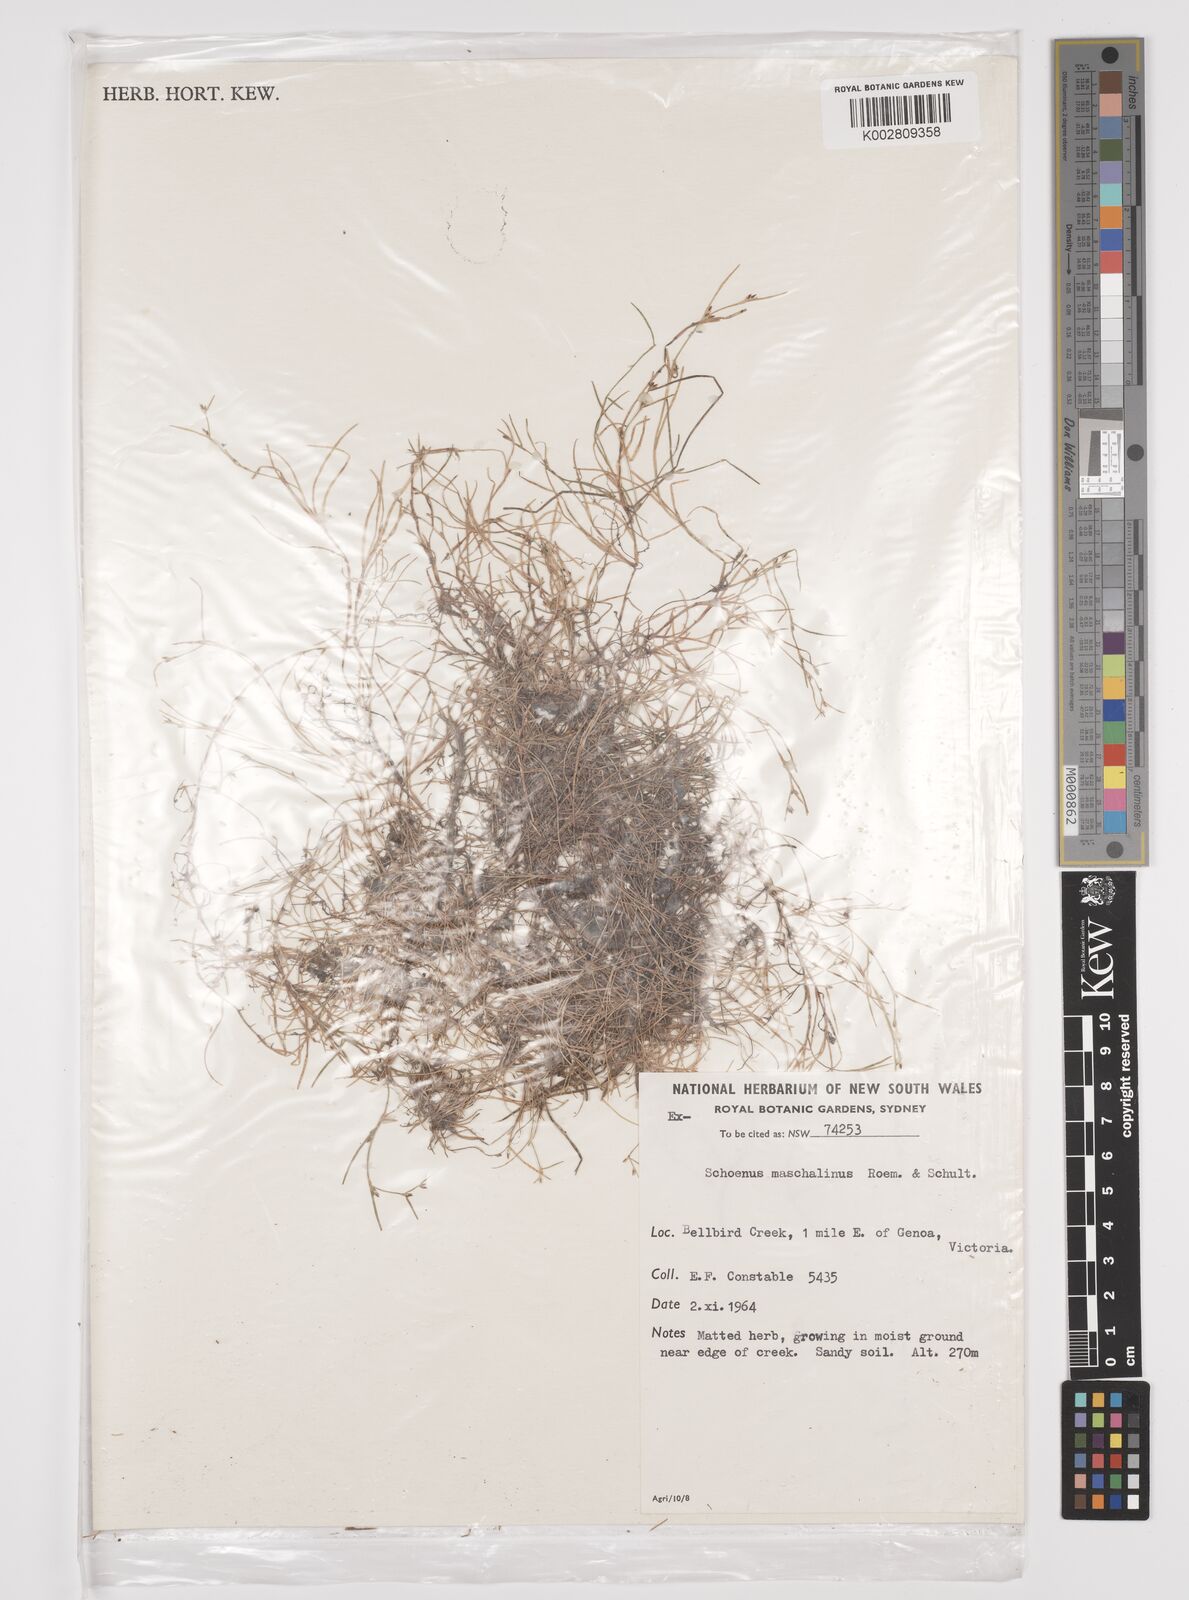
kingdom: Plantae
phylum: Tracheophyta
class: Liliopsida
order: Poales
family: Cyperaceae
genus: Schoenus
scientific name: Schoenus maschalinus
